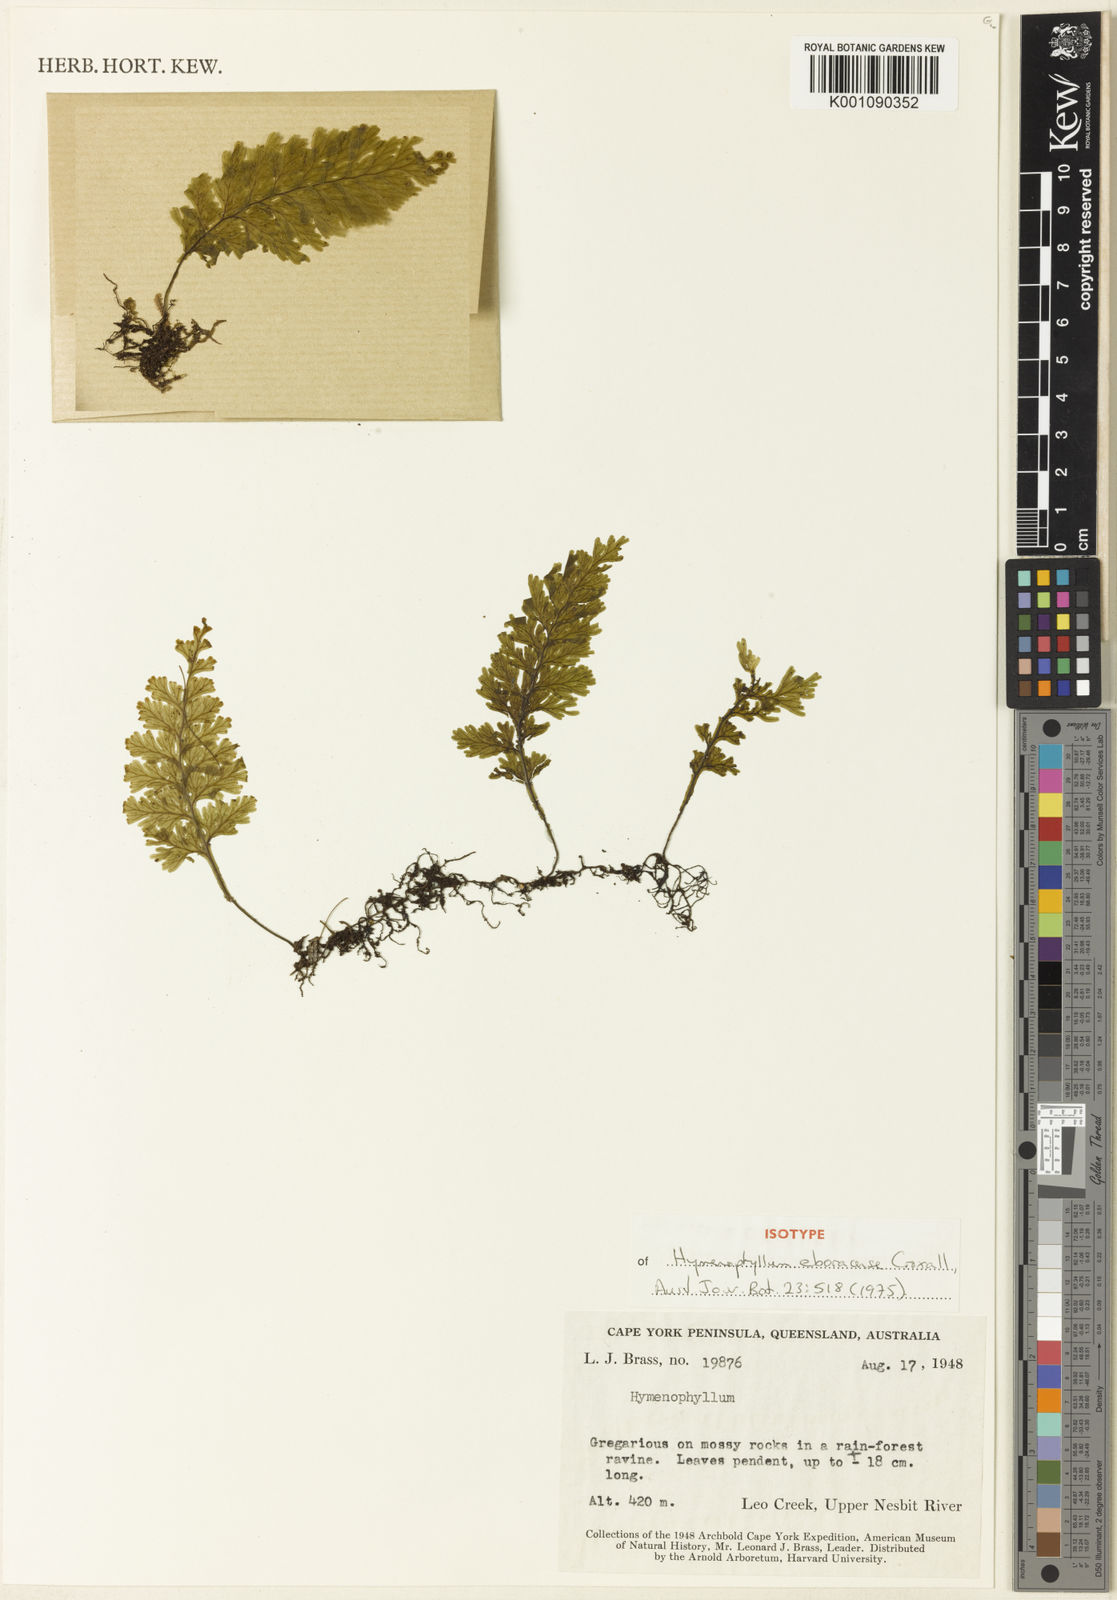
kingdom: Plantae
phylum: Tracheophyta
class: Polypodiopsida
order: Hymenophyllales
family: Hymenophyllaceae
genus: Hymenophyllum
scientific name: Hymenophyllum eboracense
